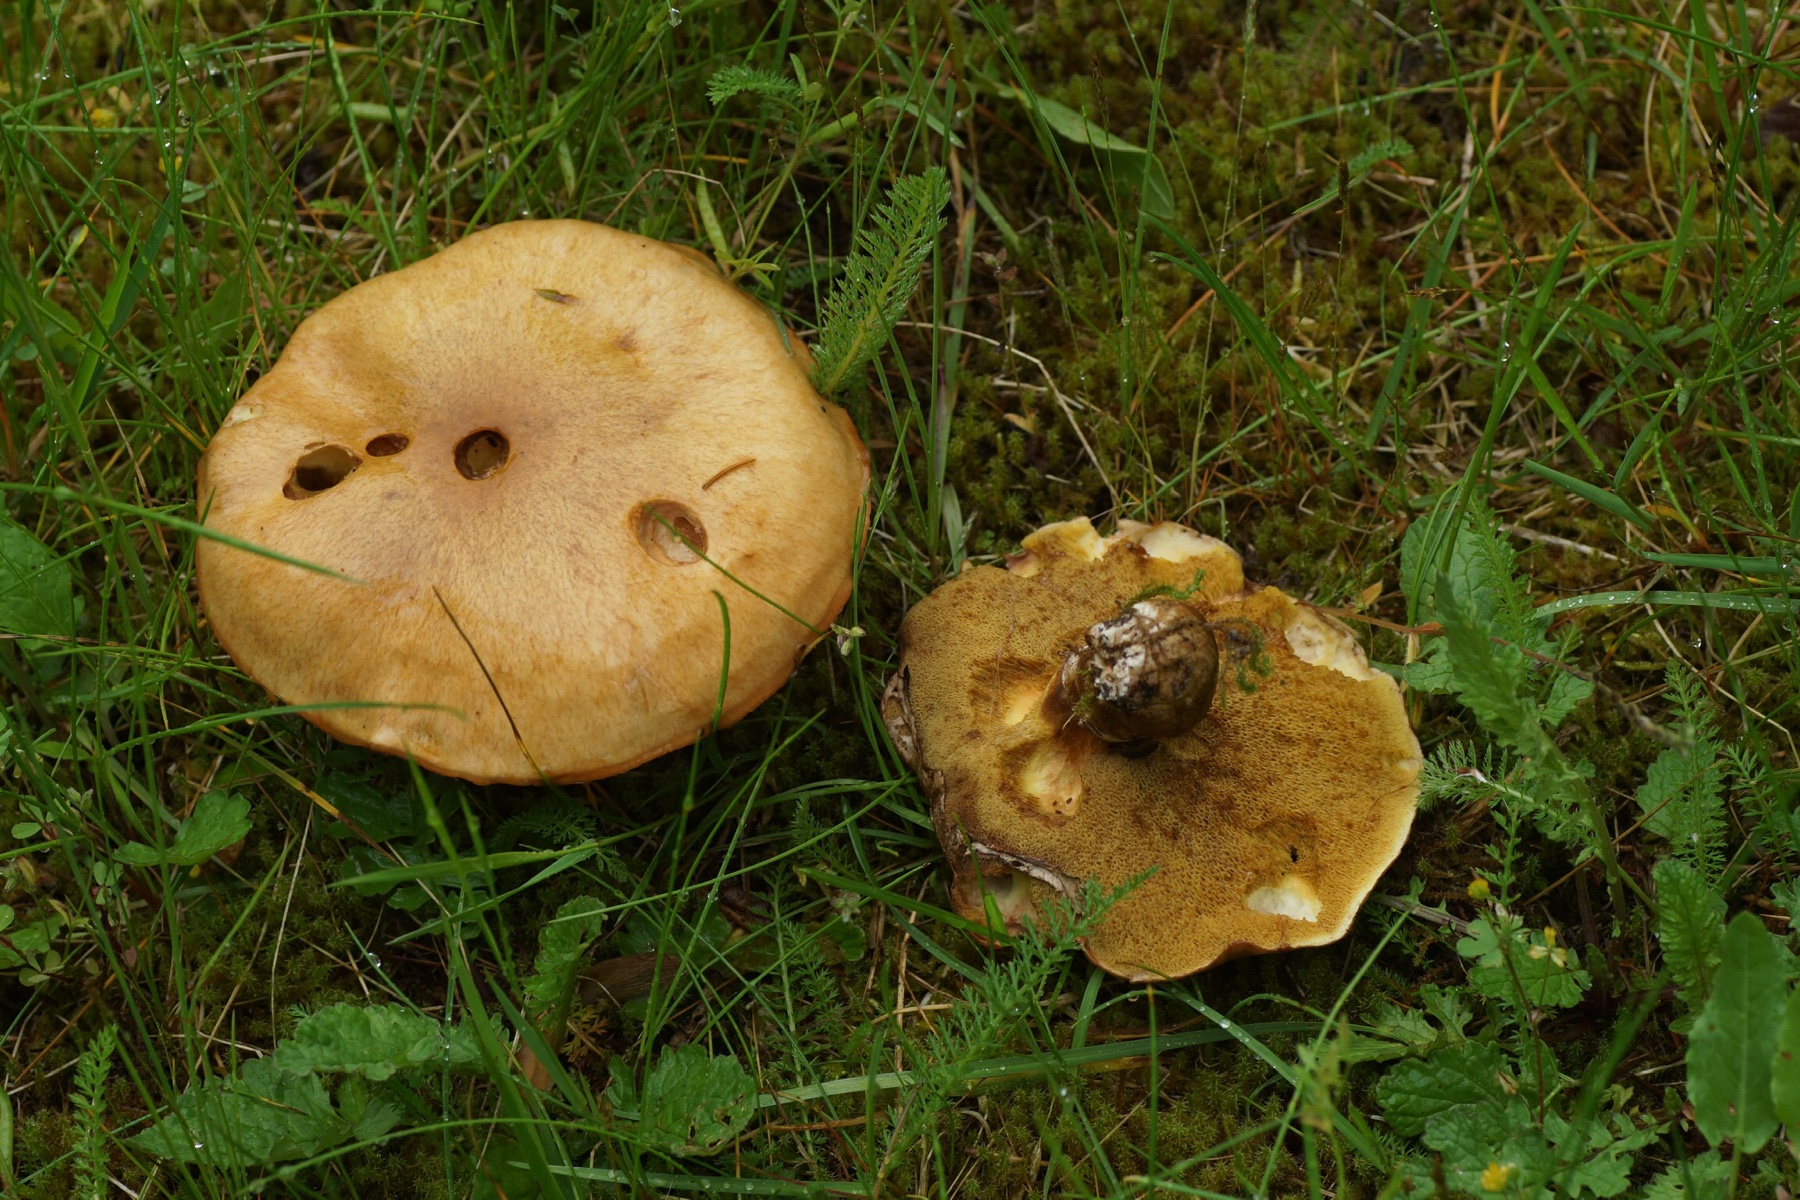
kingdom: Fungi
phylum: Basidiomycota
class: Agaricomycetes
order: Boletales
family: Suillaceae
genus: Suillus
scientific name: Suillus luteus
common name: brungul slimrørhat
